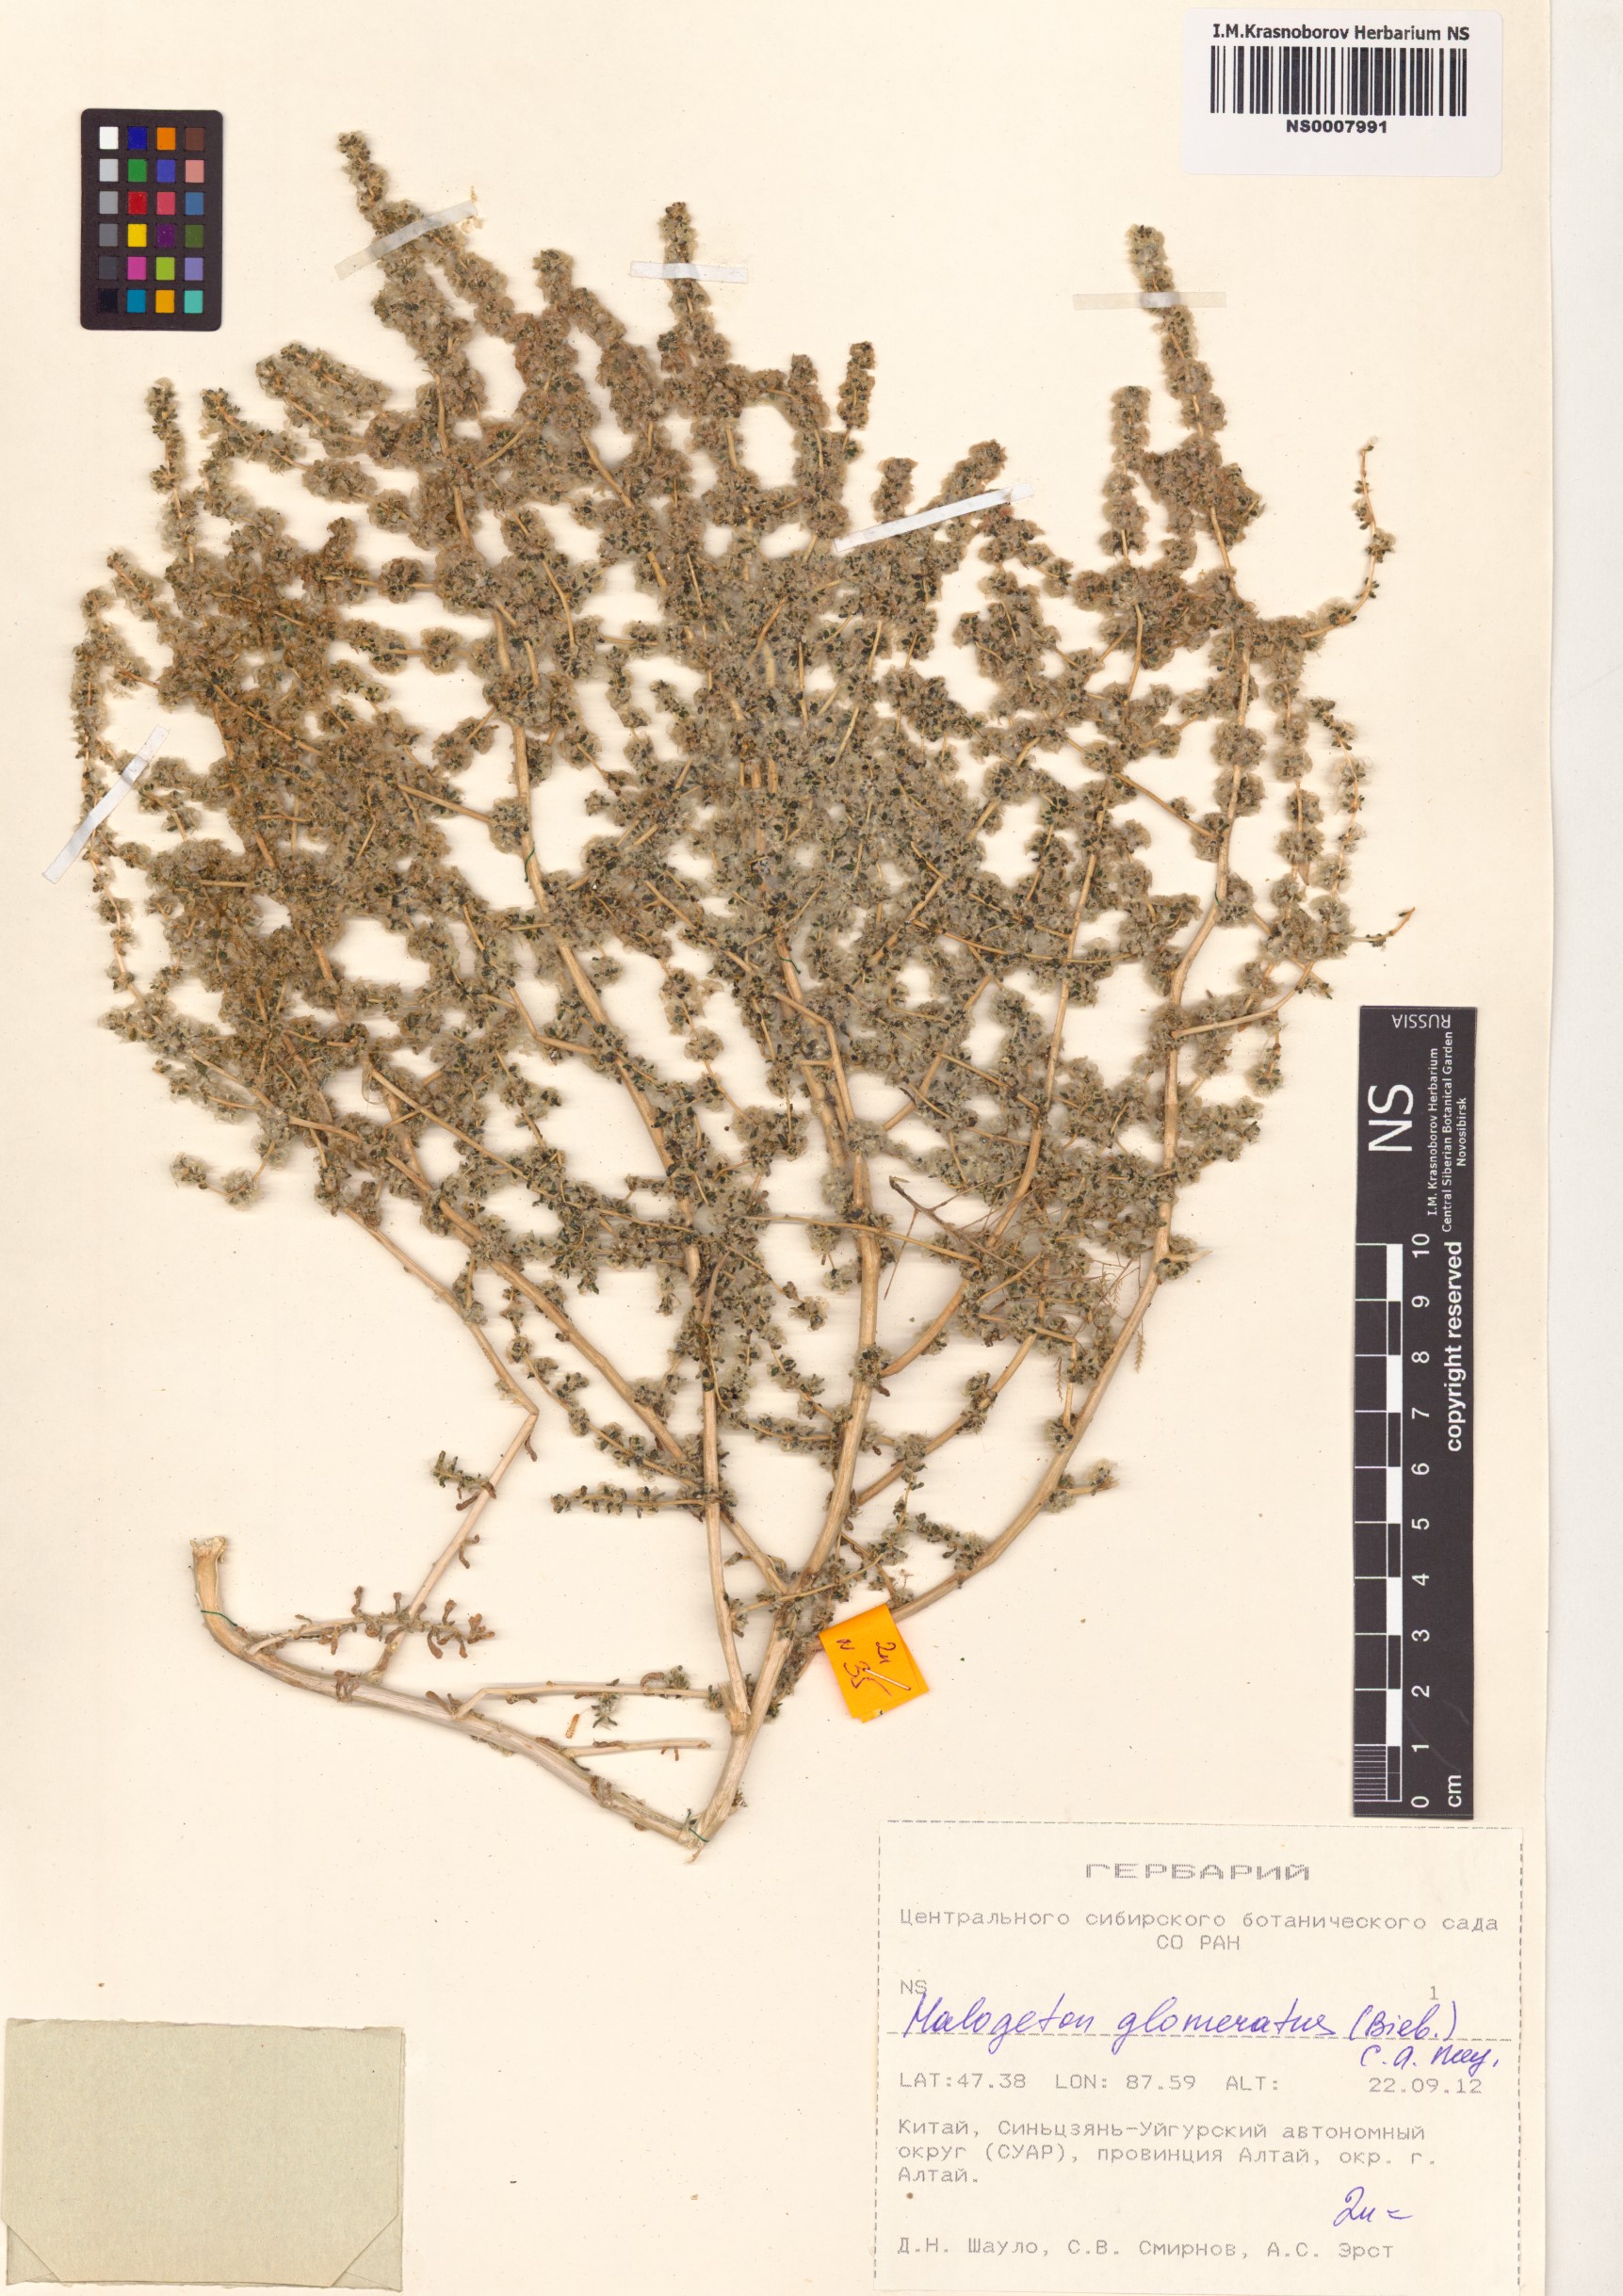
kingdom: Plantae
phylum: Tracheophyta
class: Magnoliopsida
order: Caryophyllales
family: Amaranthaceae
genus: Halogeton
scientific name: Halogeton glomeratus
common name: Saltlover
